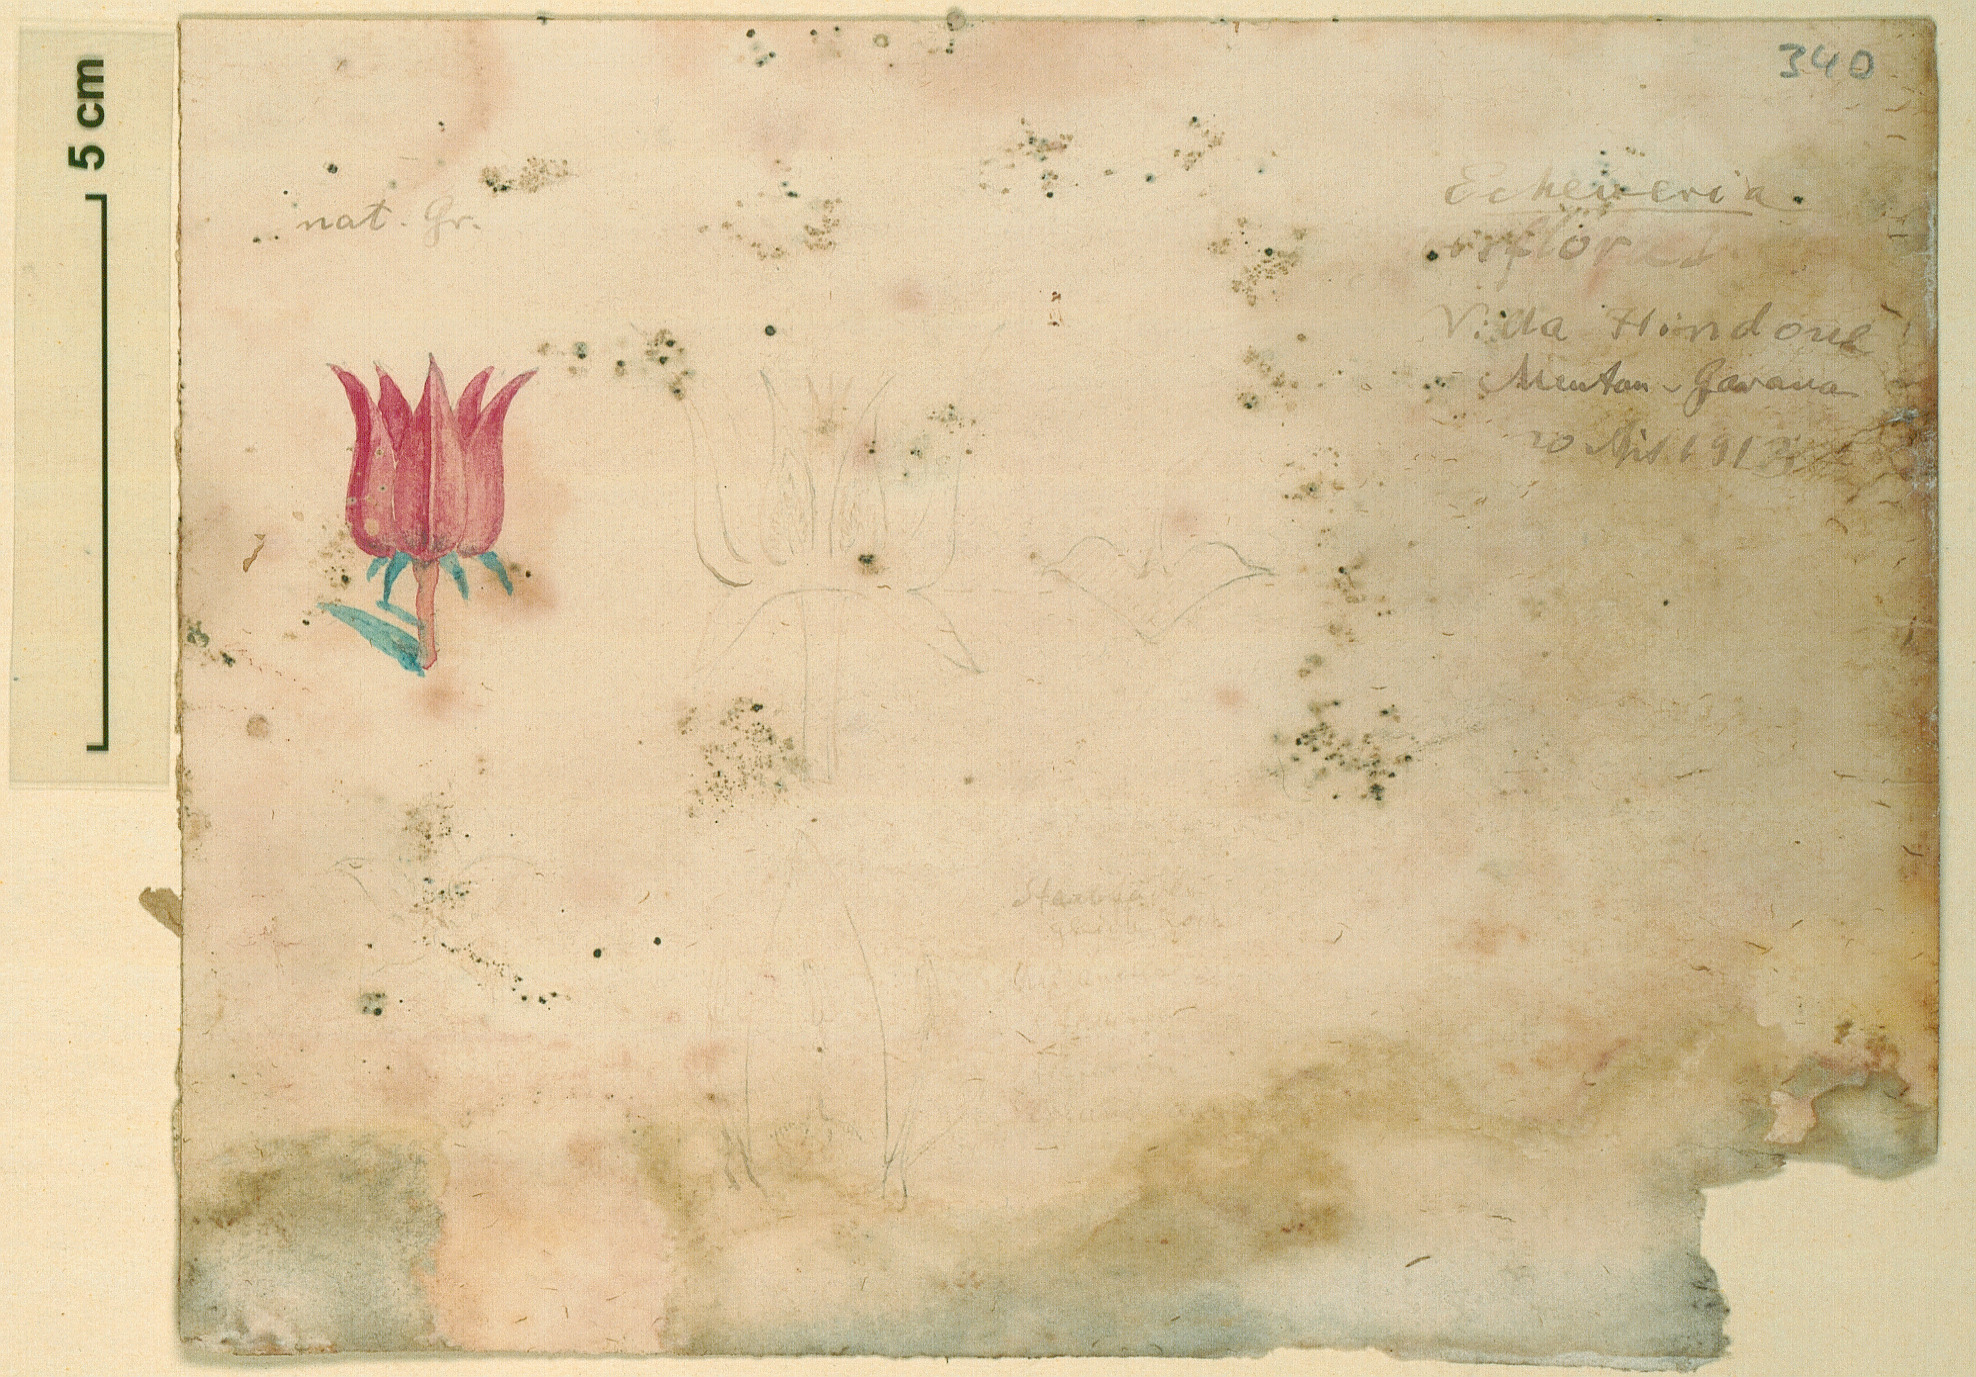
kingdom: Plantae
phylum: Tracheophyta
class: Magnoliopsida
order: Saxifragales
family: Crassulaceae
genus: Echeveria
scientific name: Echeveria
